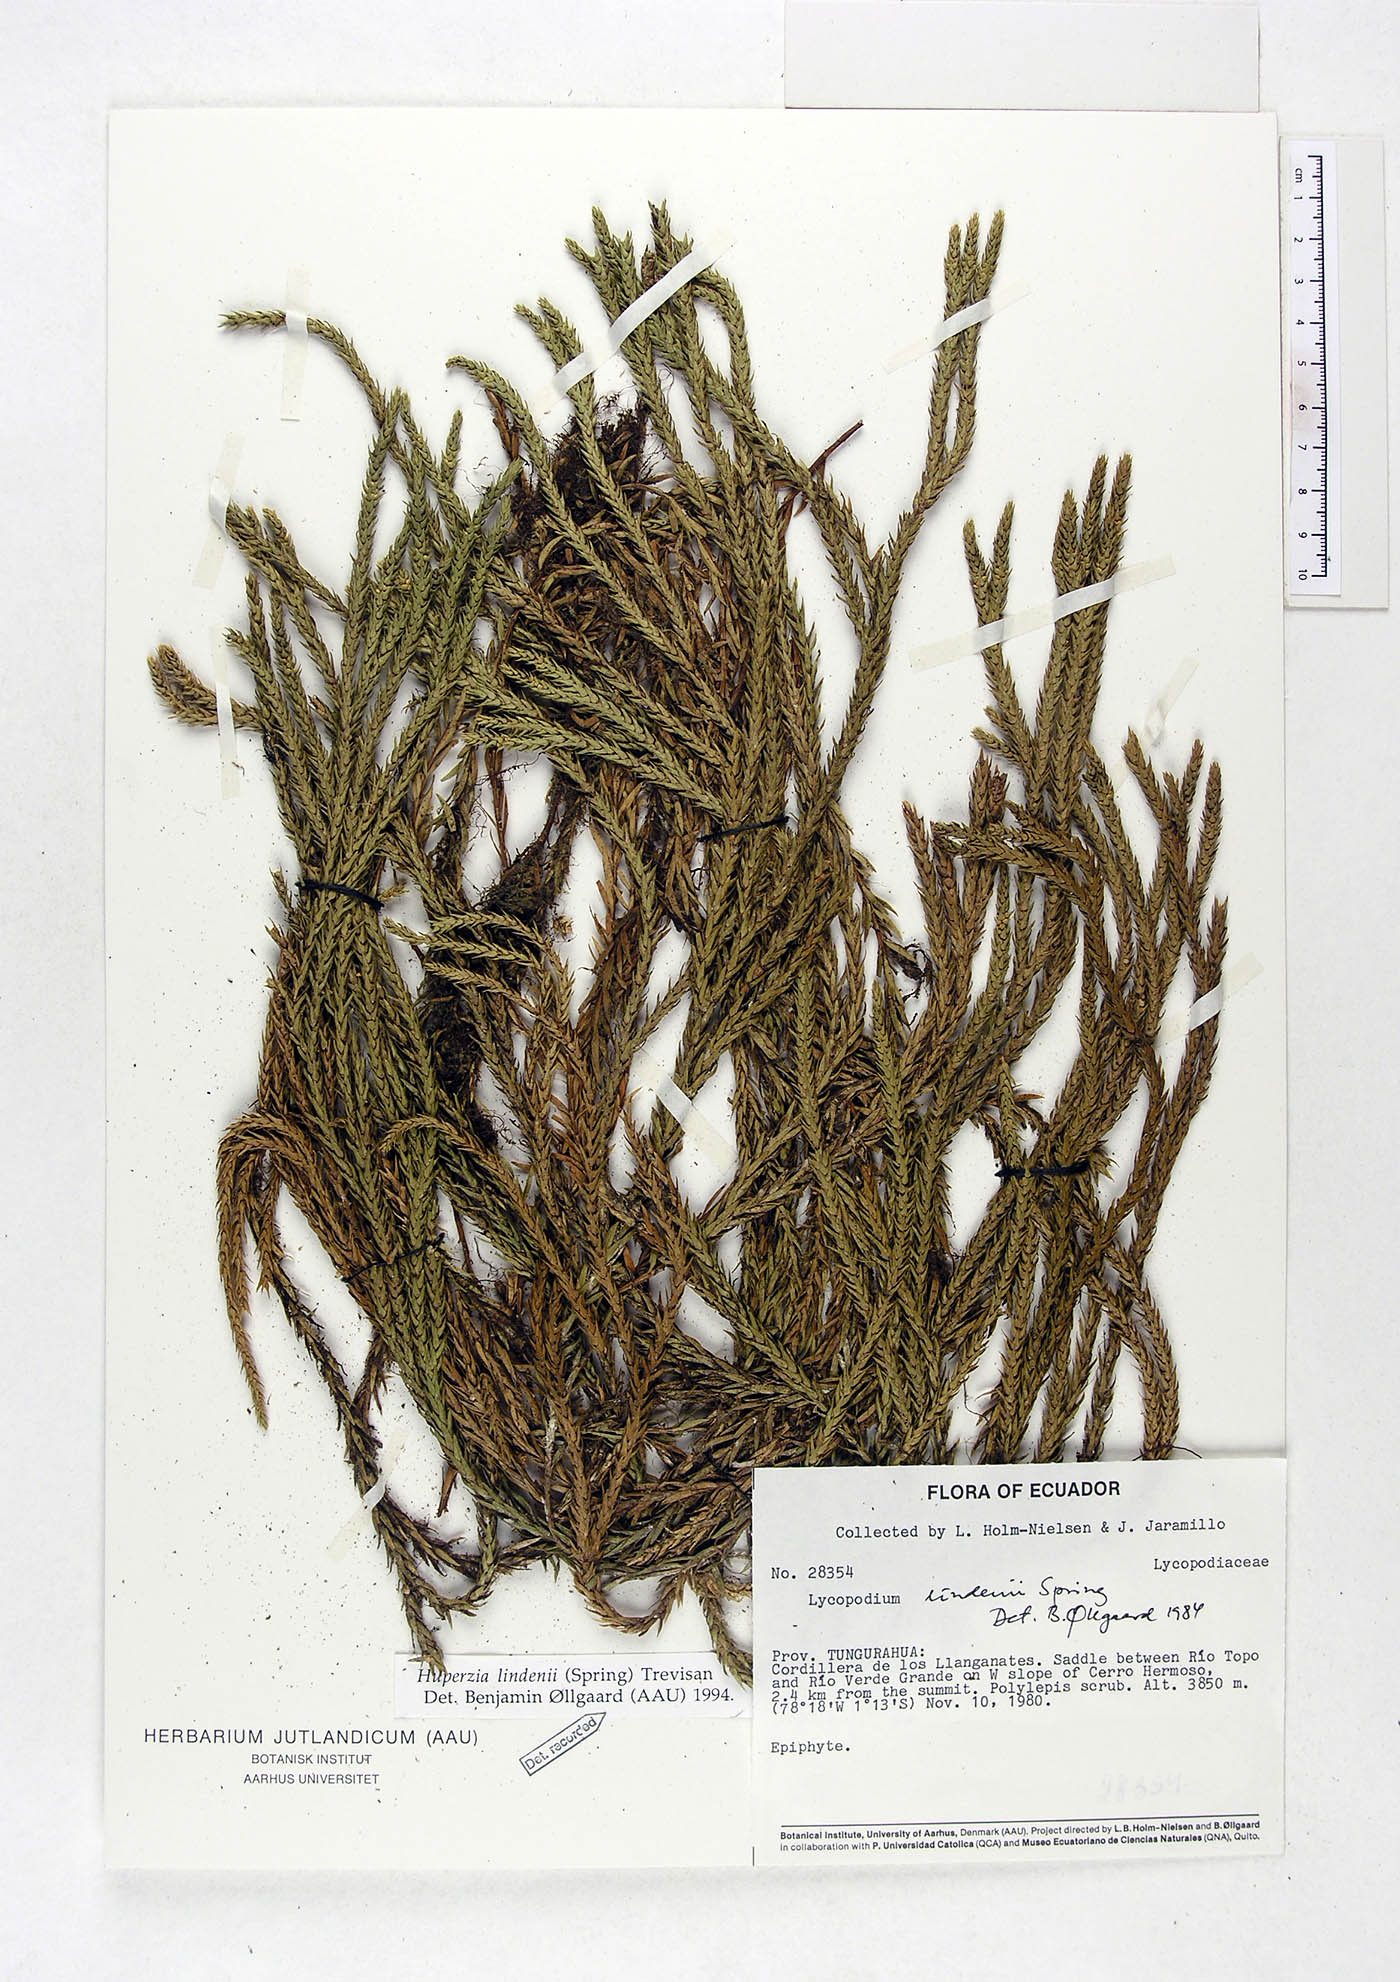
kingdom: Plantae
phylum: Tracheophyta
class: Lycopodiopsida
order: Lycopodiales
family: Lycopodiaceae
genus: Phlegmariurus
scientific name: Phlegmariurus lindenii
